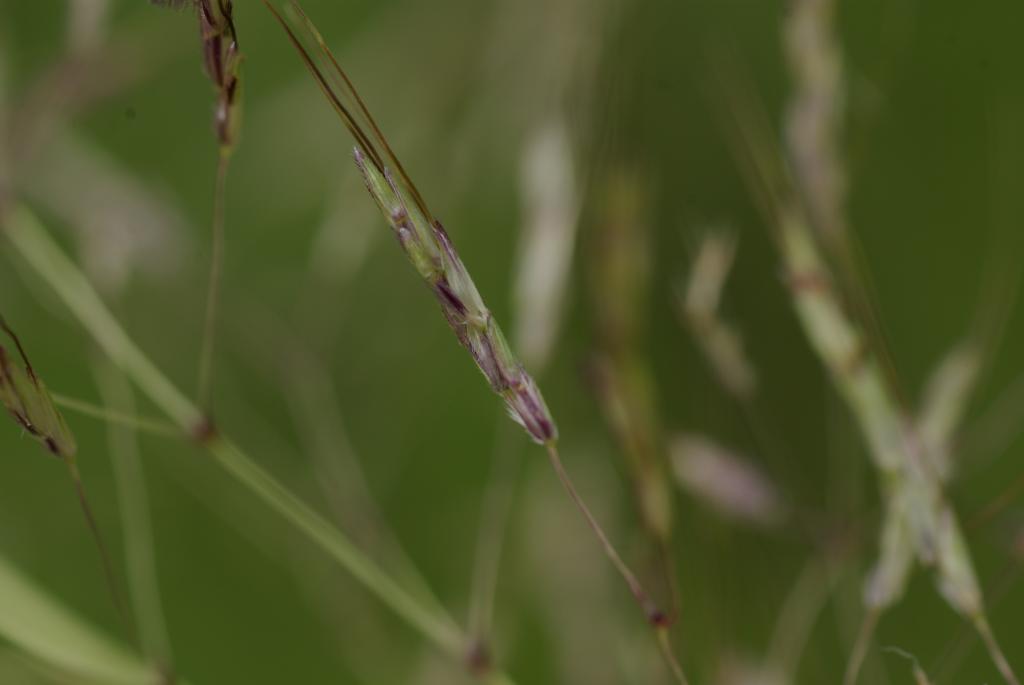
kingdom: Plantae
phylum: Tracheophyta
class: Liliopsida
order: Poales
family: Poaceae
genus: Capillipedium
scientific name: Capillipedium parviflorum
